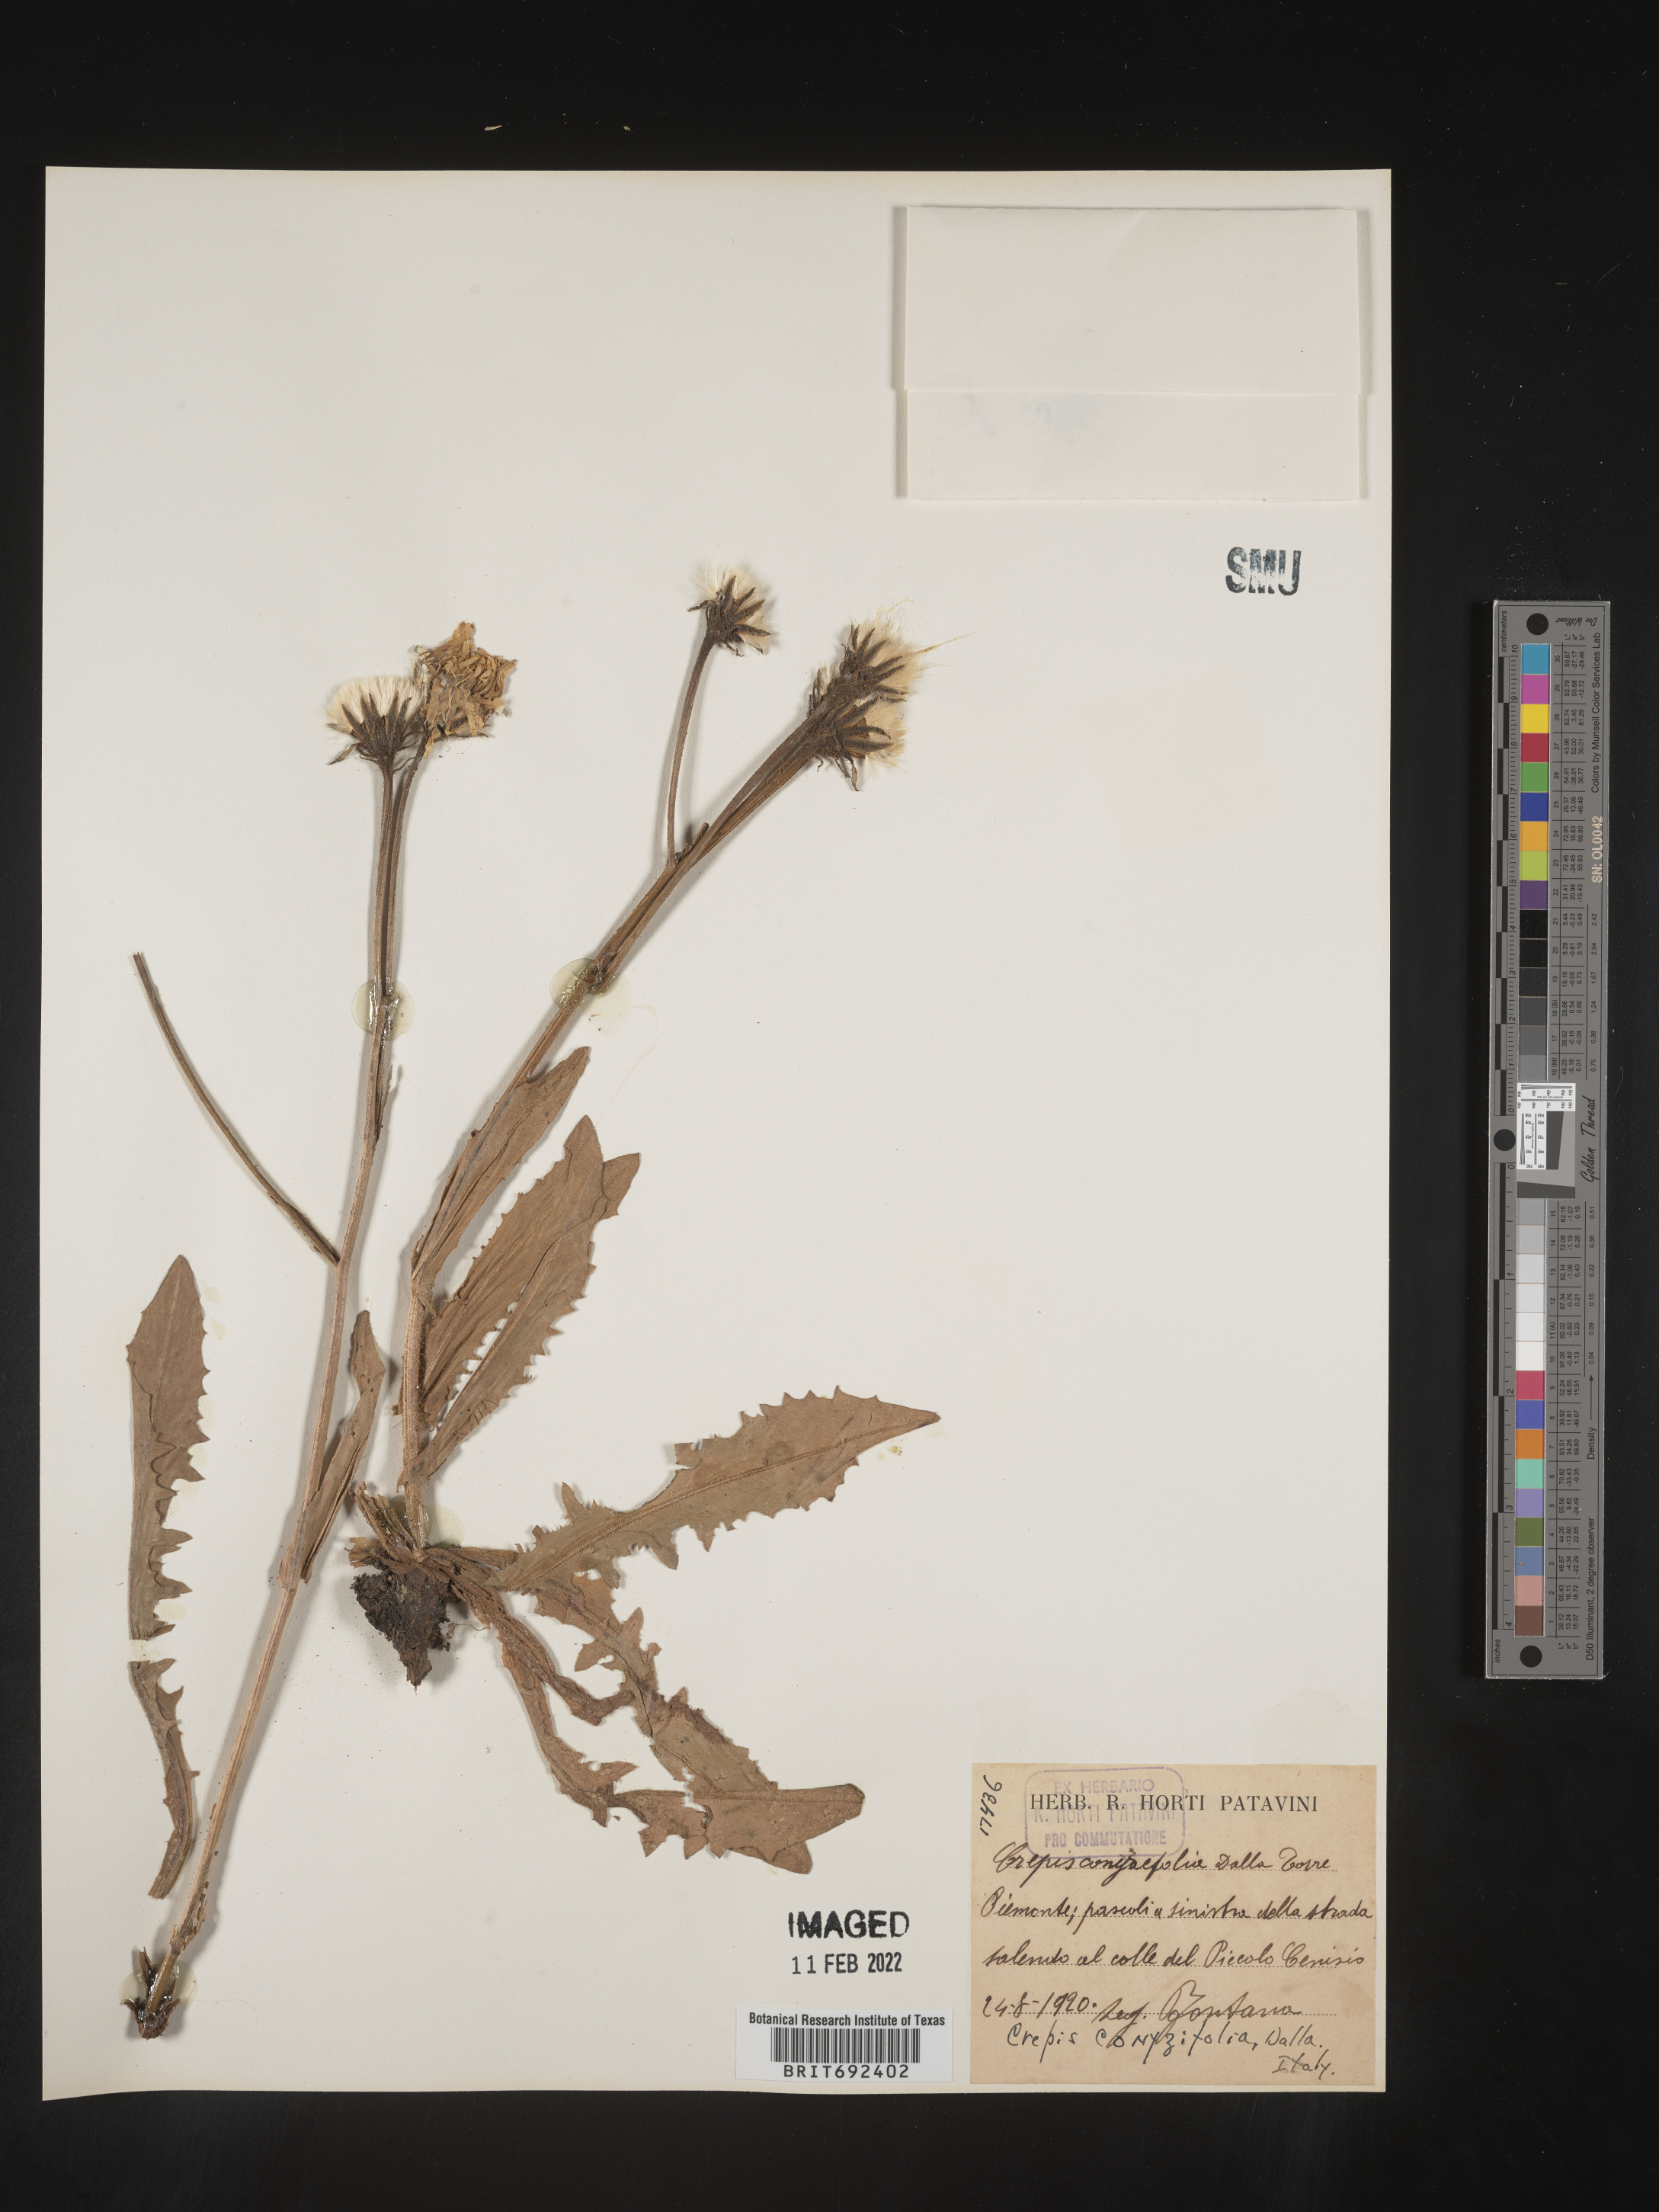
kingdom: Plantae
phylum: Tracheophyta
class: Magnoliopsida
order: Asterales
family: Asteraceae
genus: Crepis
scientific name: Crepis
